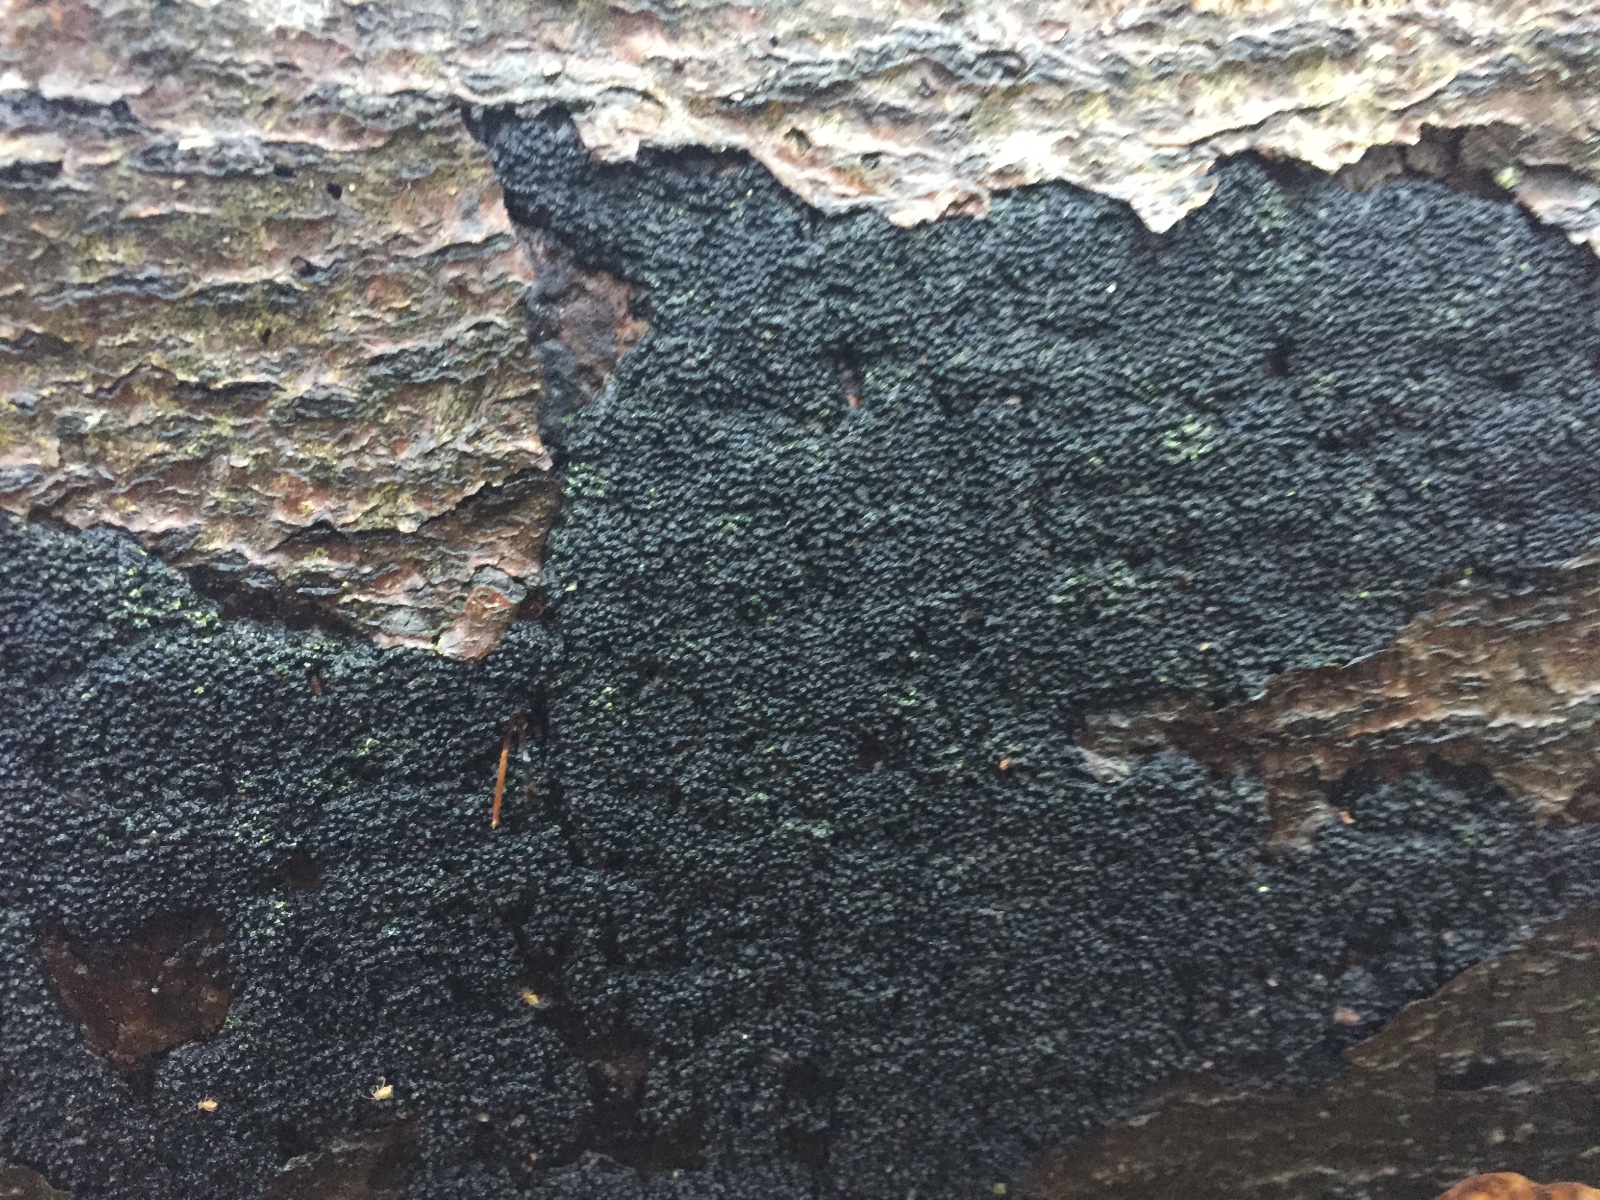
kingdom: Fungi
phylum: Ascomycota
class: Sordariomycetes
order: Xylariales
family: Diatrypaceae
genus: Eutypa
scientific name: Eutypa spinosa
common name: grov kulskorpe
